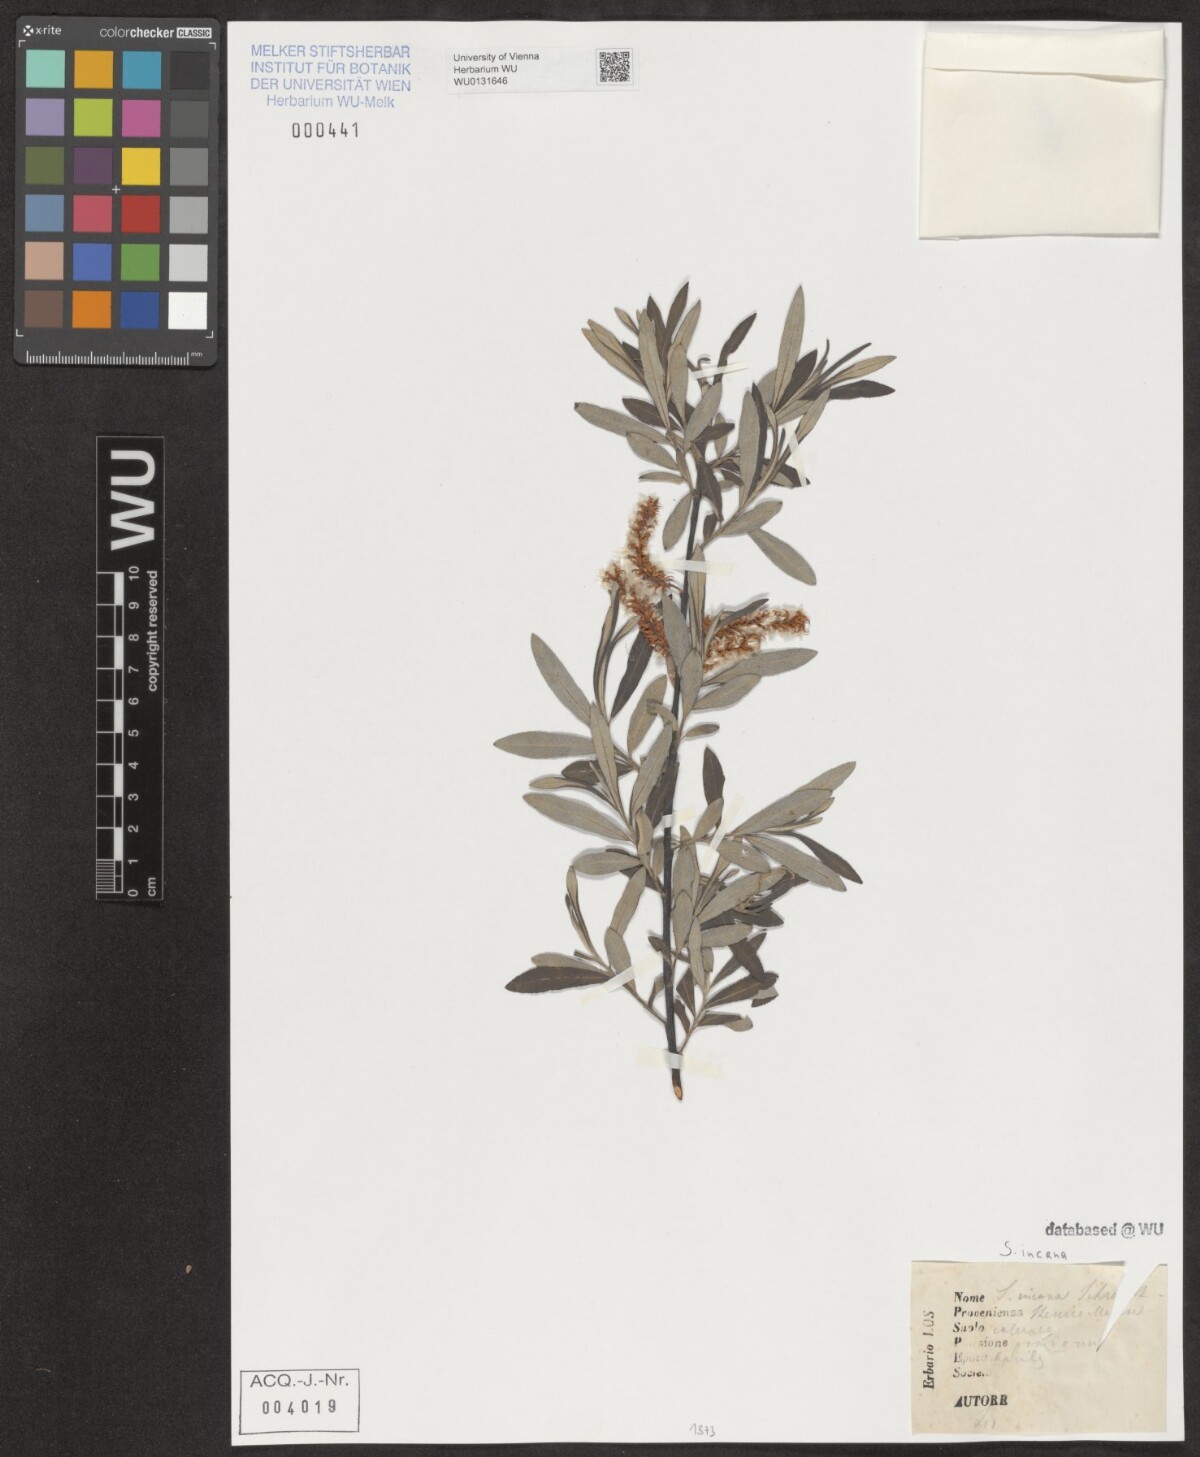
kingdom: Plantae
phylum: Tracheophyta
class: Magnoliopsida
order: Malpighiales
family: Salicaceae
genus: Salix
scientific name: Salix eleagnos
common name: Elaeagnus willow
